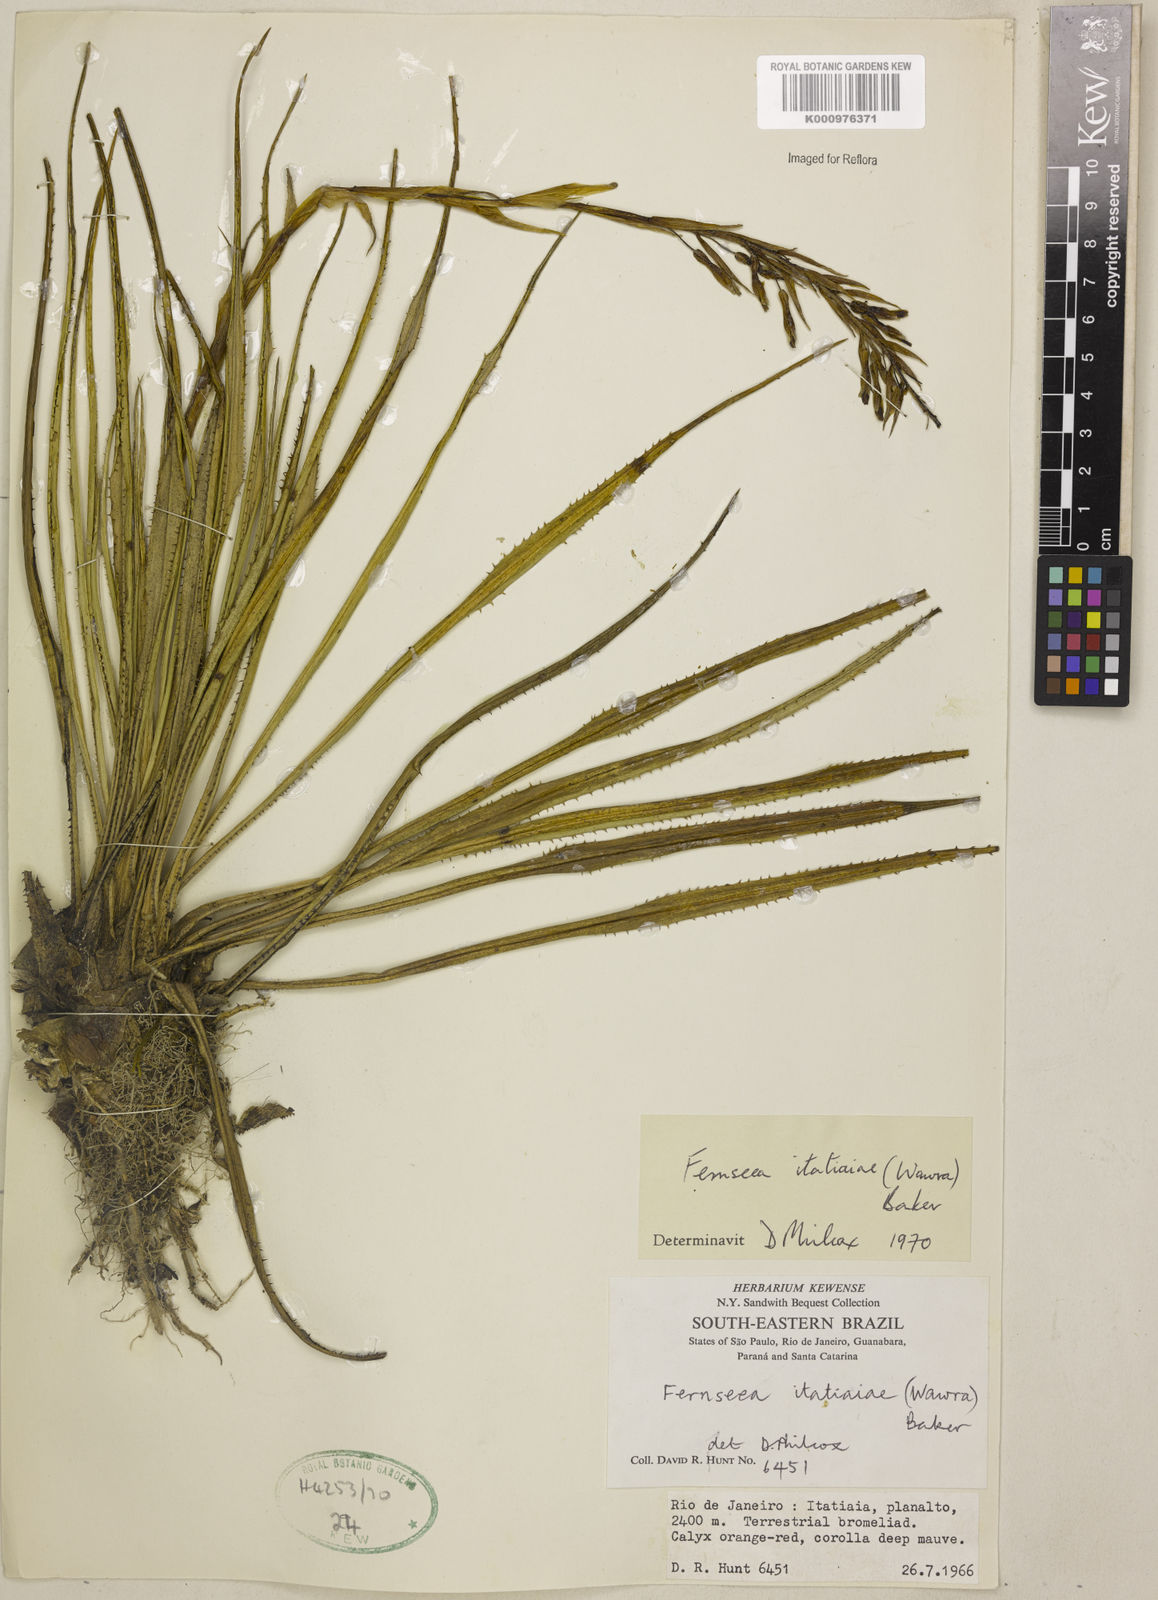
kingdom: Plantae
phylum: Tracheophyta
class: Liliopsida
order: Poales
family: Bromeliaceae
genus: Fernseea
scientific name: Fernseea itatiaiae
